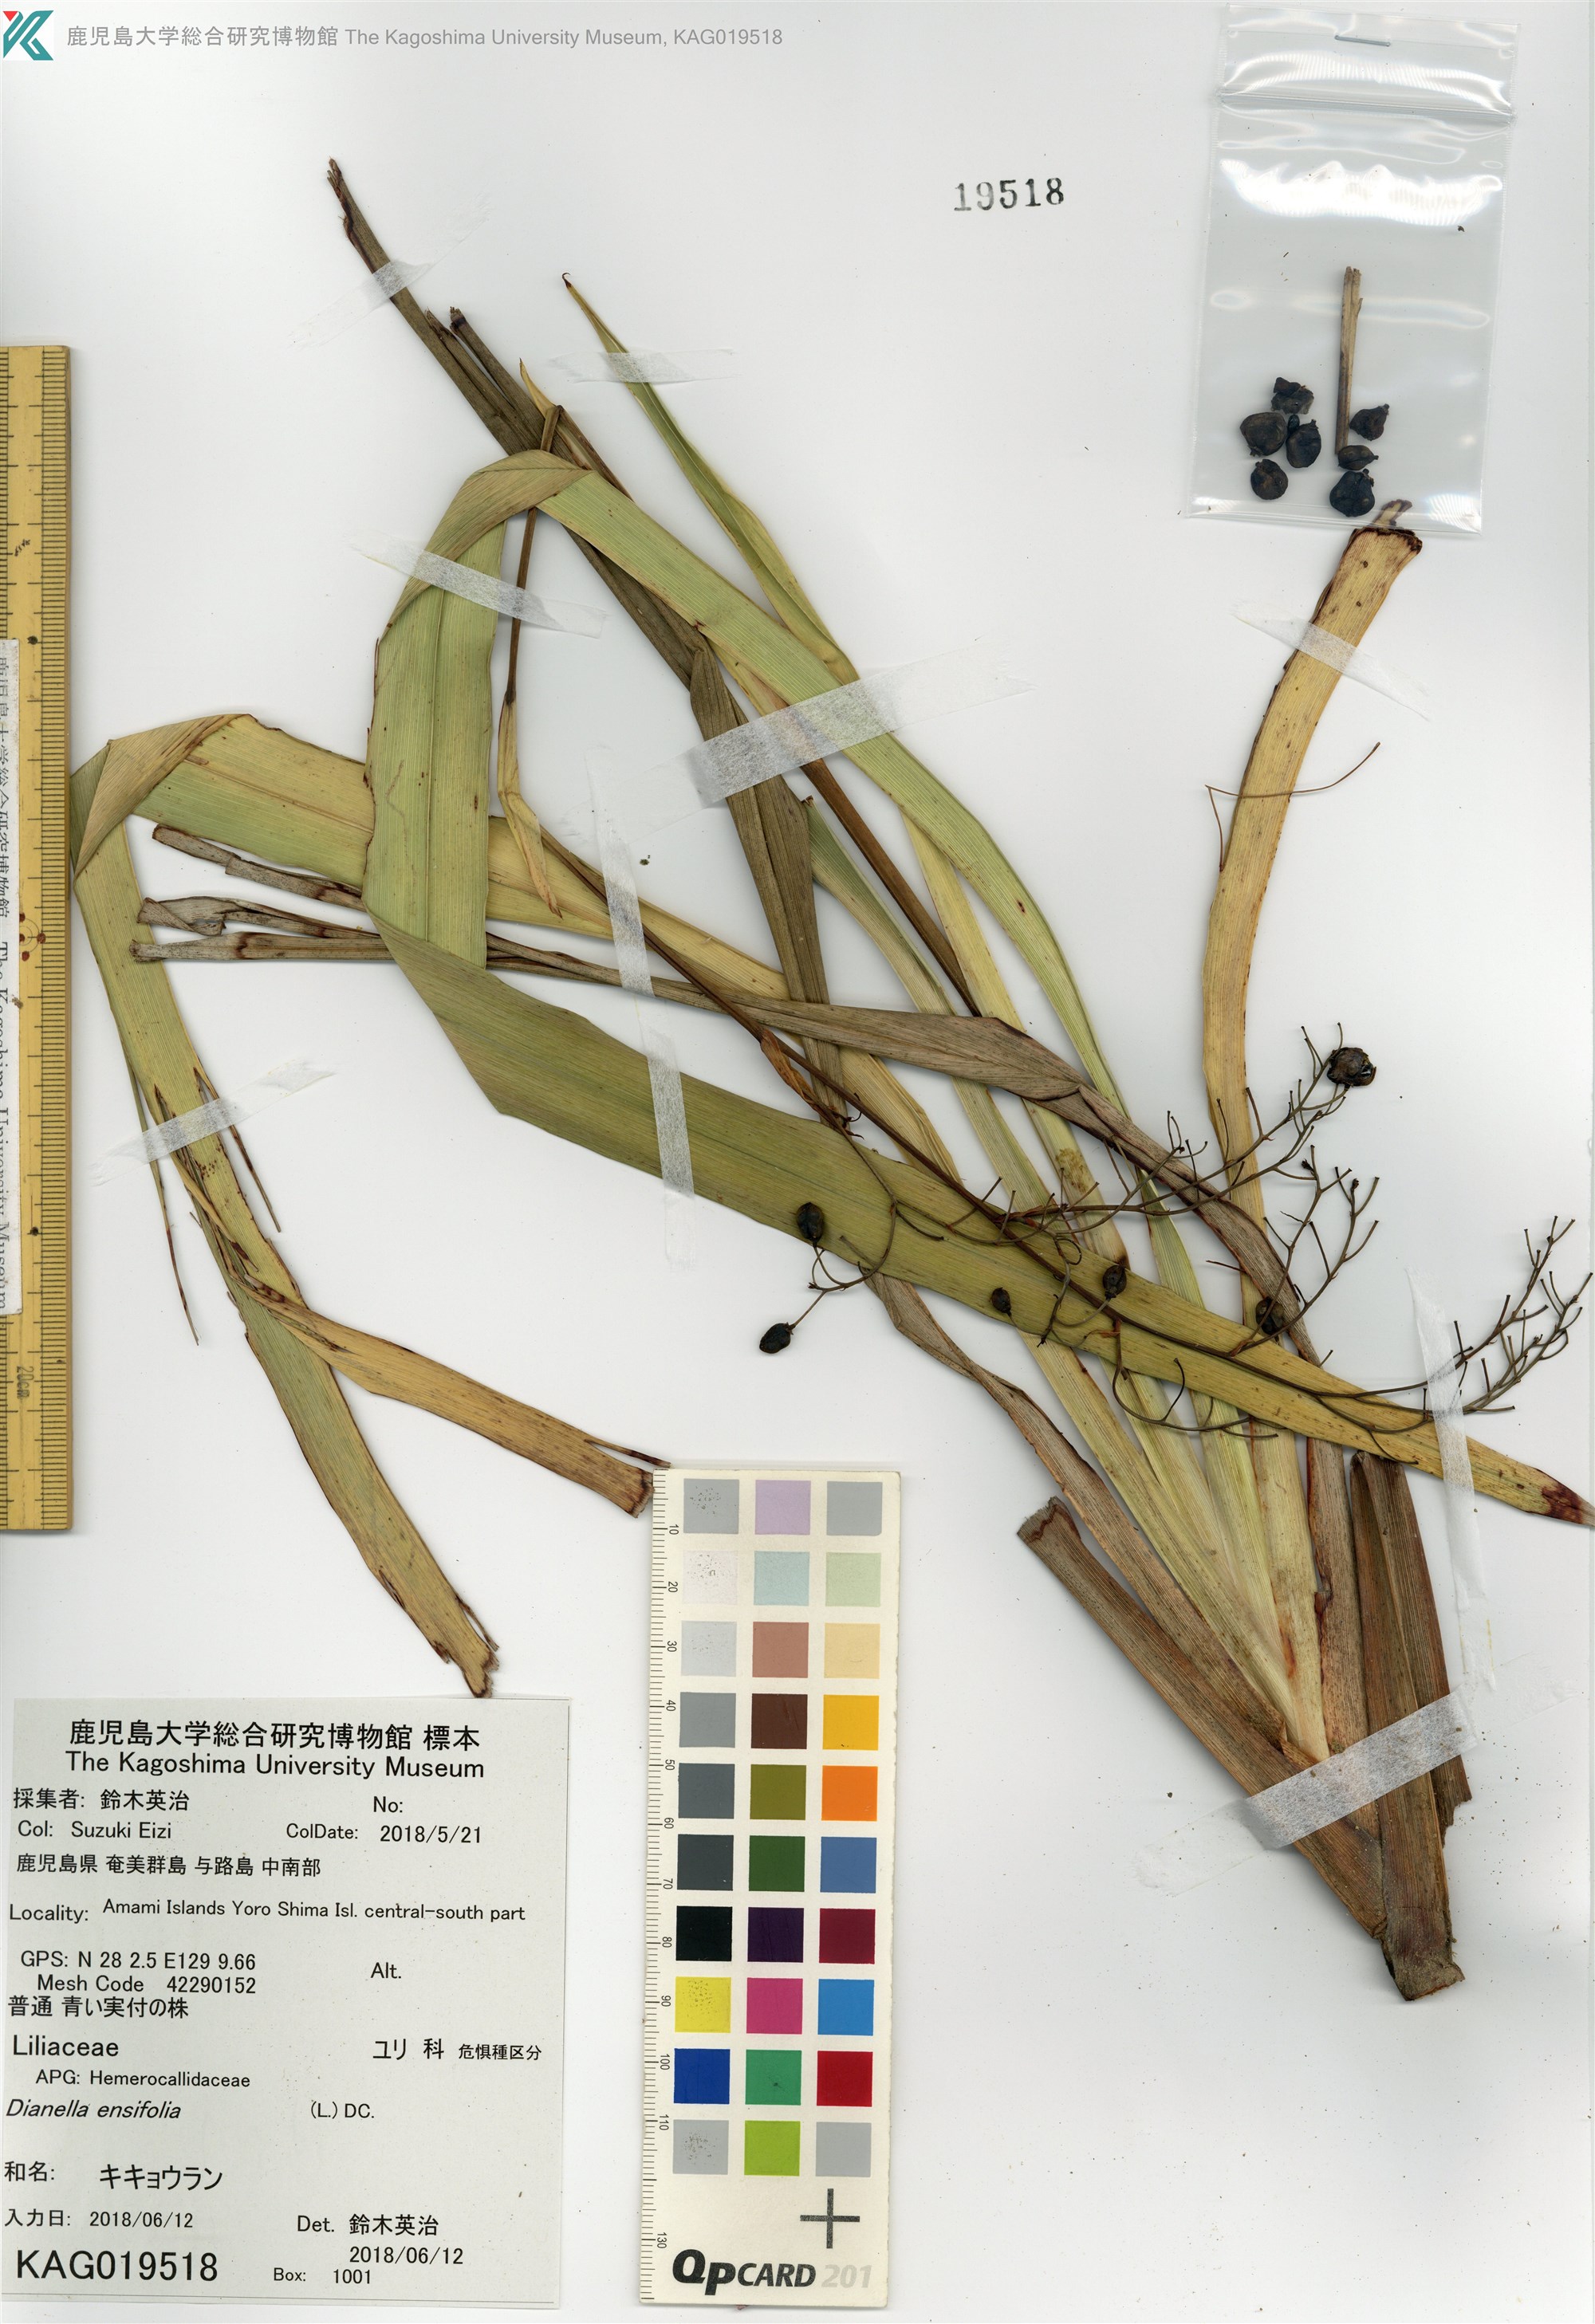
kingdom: Plantae
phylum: Tracheophyta
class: Liliopsida
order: Asparagales
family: Asphodelaceae
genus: Dianella
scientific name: Dianella ensifolia
